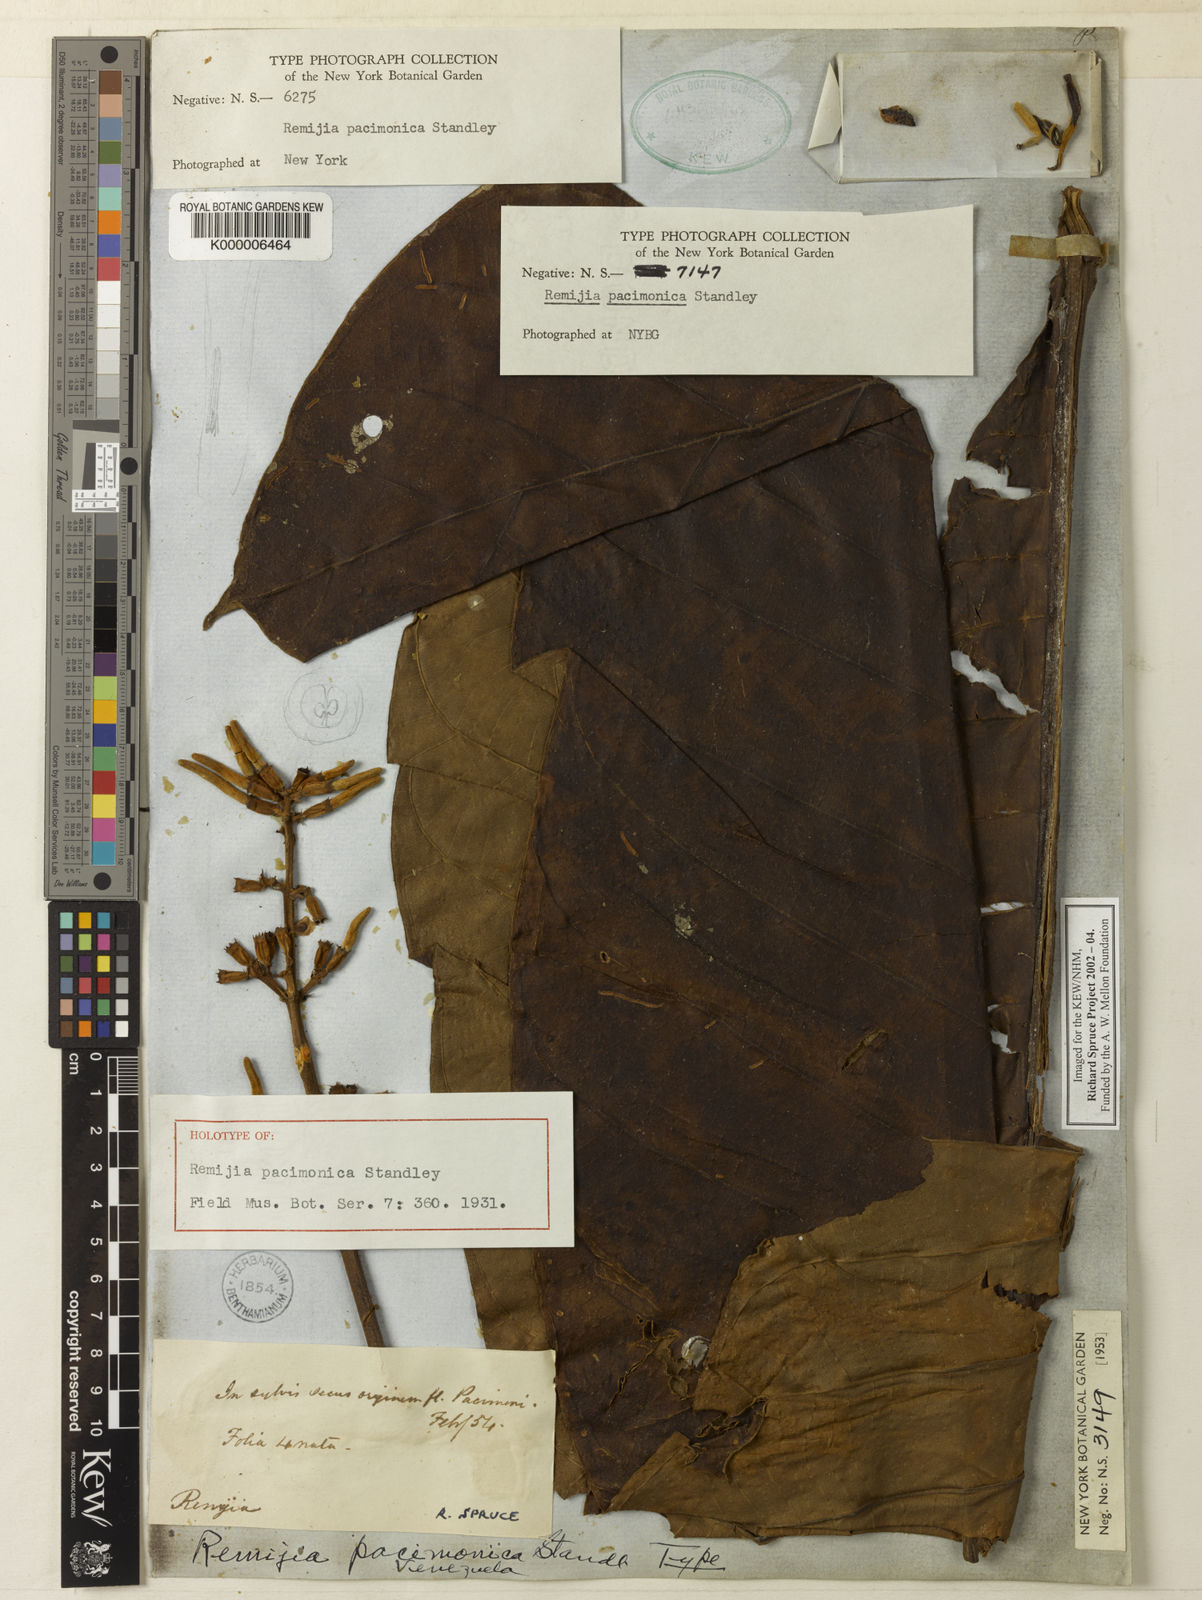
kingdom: Plantae
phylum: Tracheophyta
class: Magnoliopsida
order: Gentianales
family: Rubiaceae
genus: Remijia
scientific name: Remijia pacimonica
